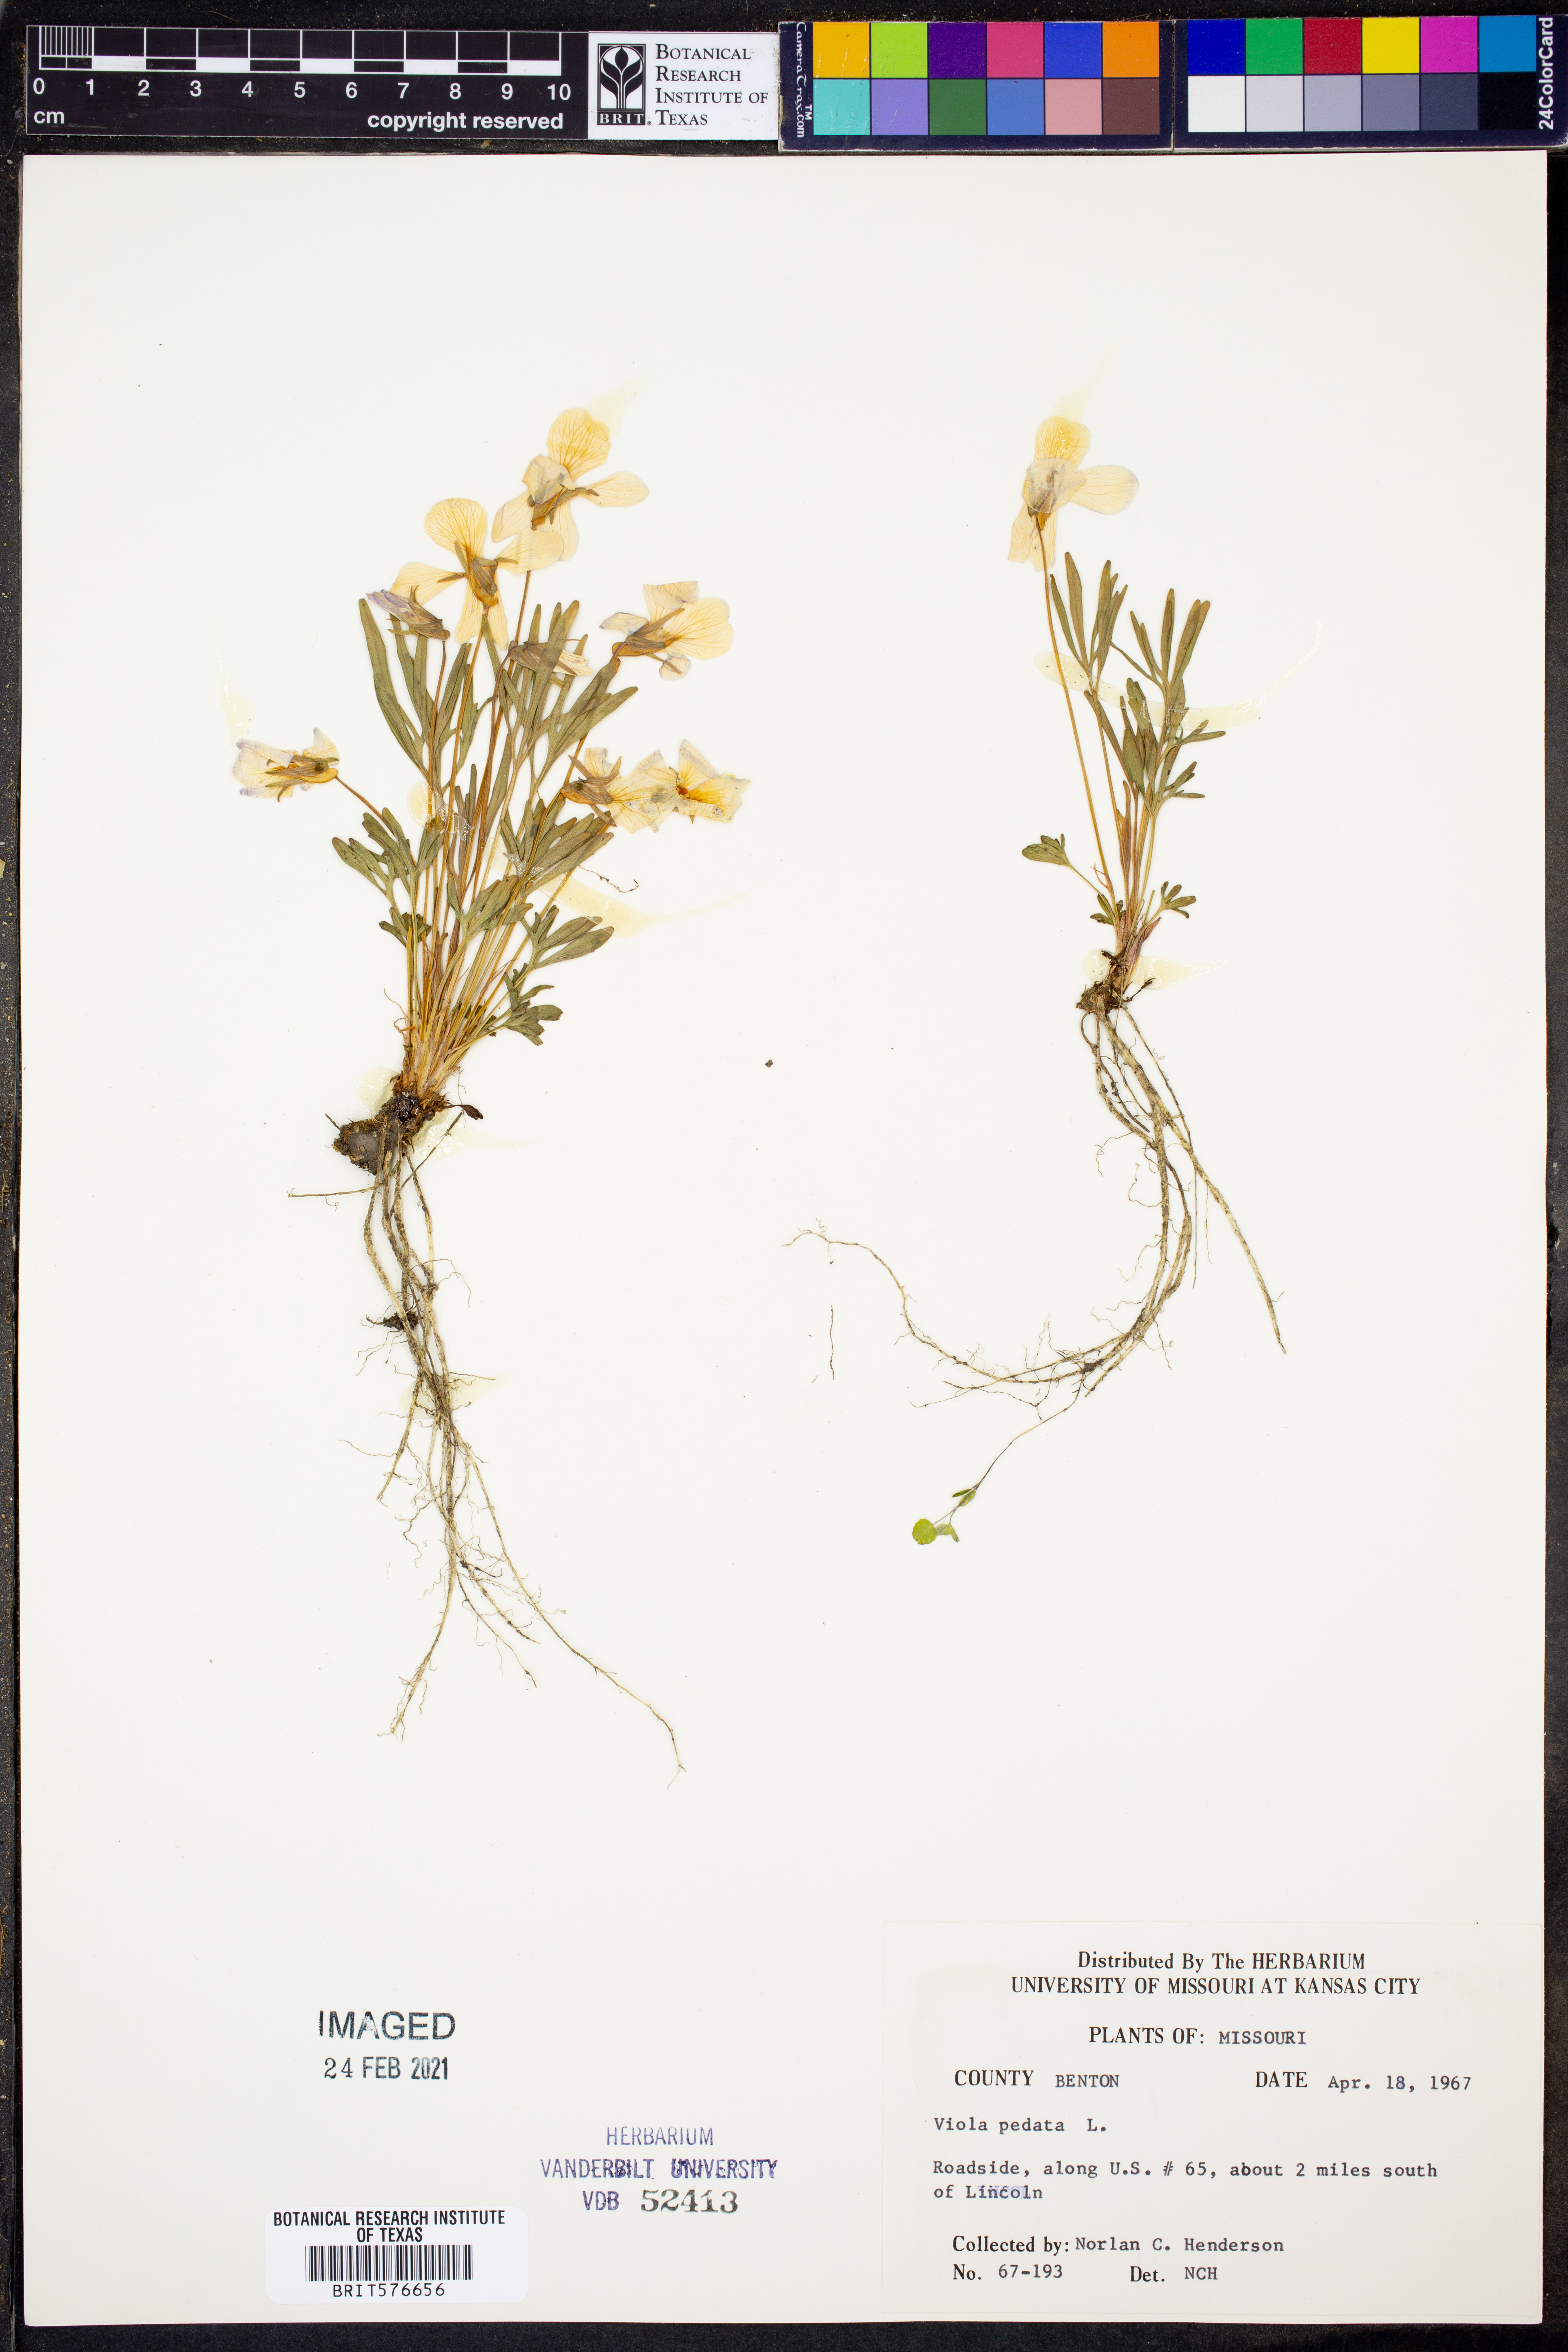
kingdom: Plantae
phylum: Tracheophyta
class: Magnoliopsida
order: Malpighiales
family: Violaceae
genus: Viola
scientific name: Viola pedata
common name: Pansy violet
